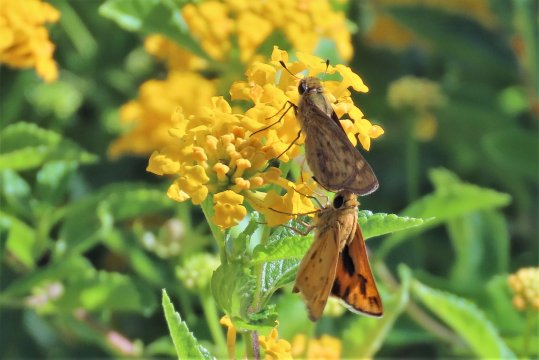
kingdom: Animalia
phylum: Arthropoda
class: Insecta
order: Lepidoptera
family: Hesperiidae
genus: Atalopedes
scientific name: Atalopedes campestris
